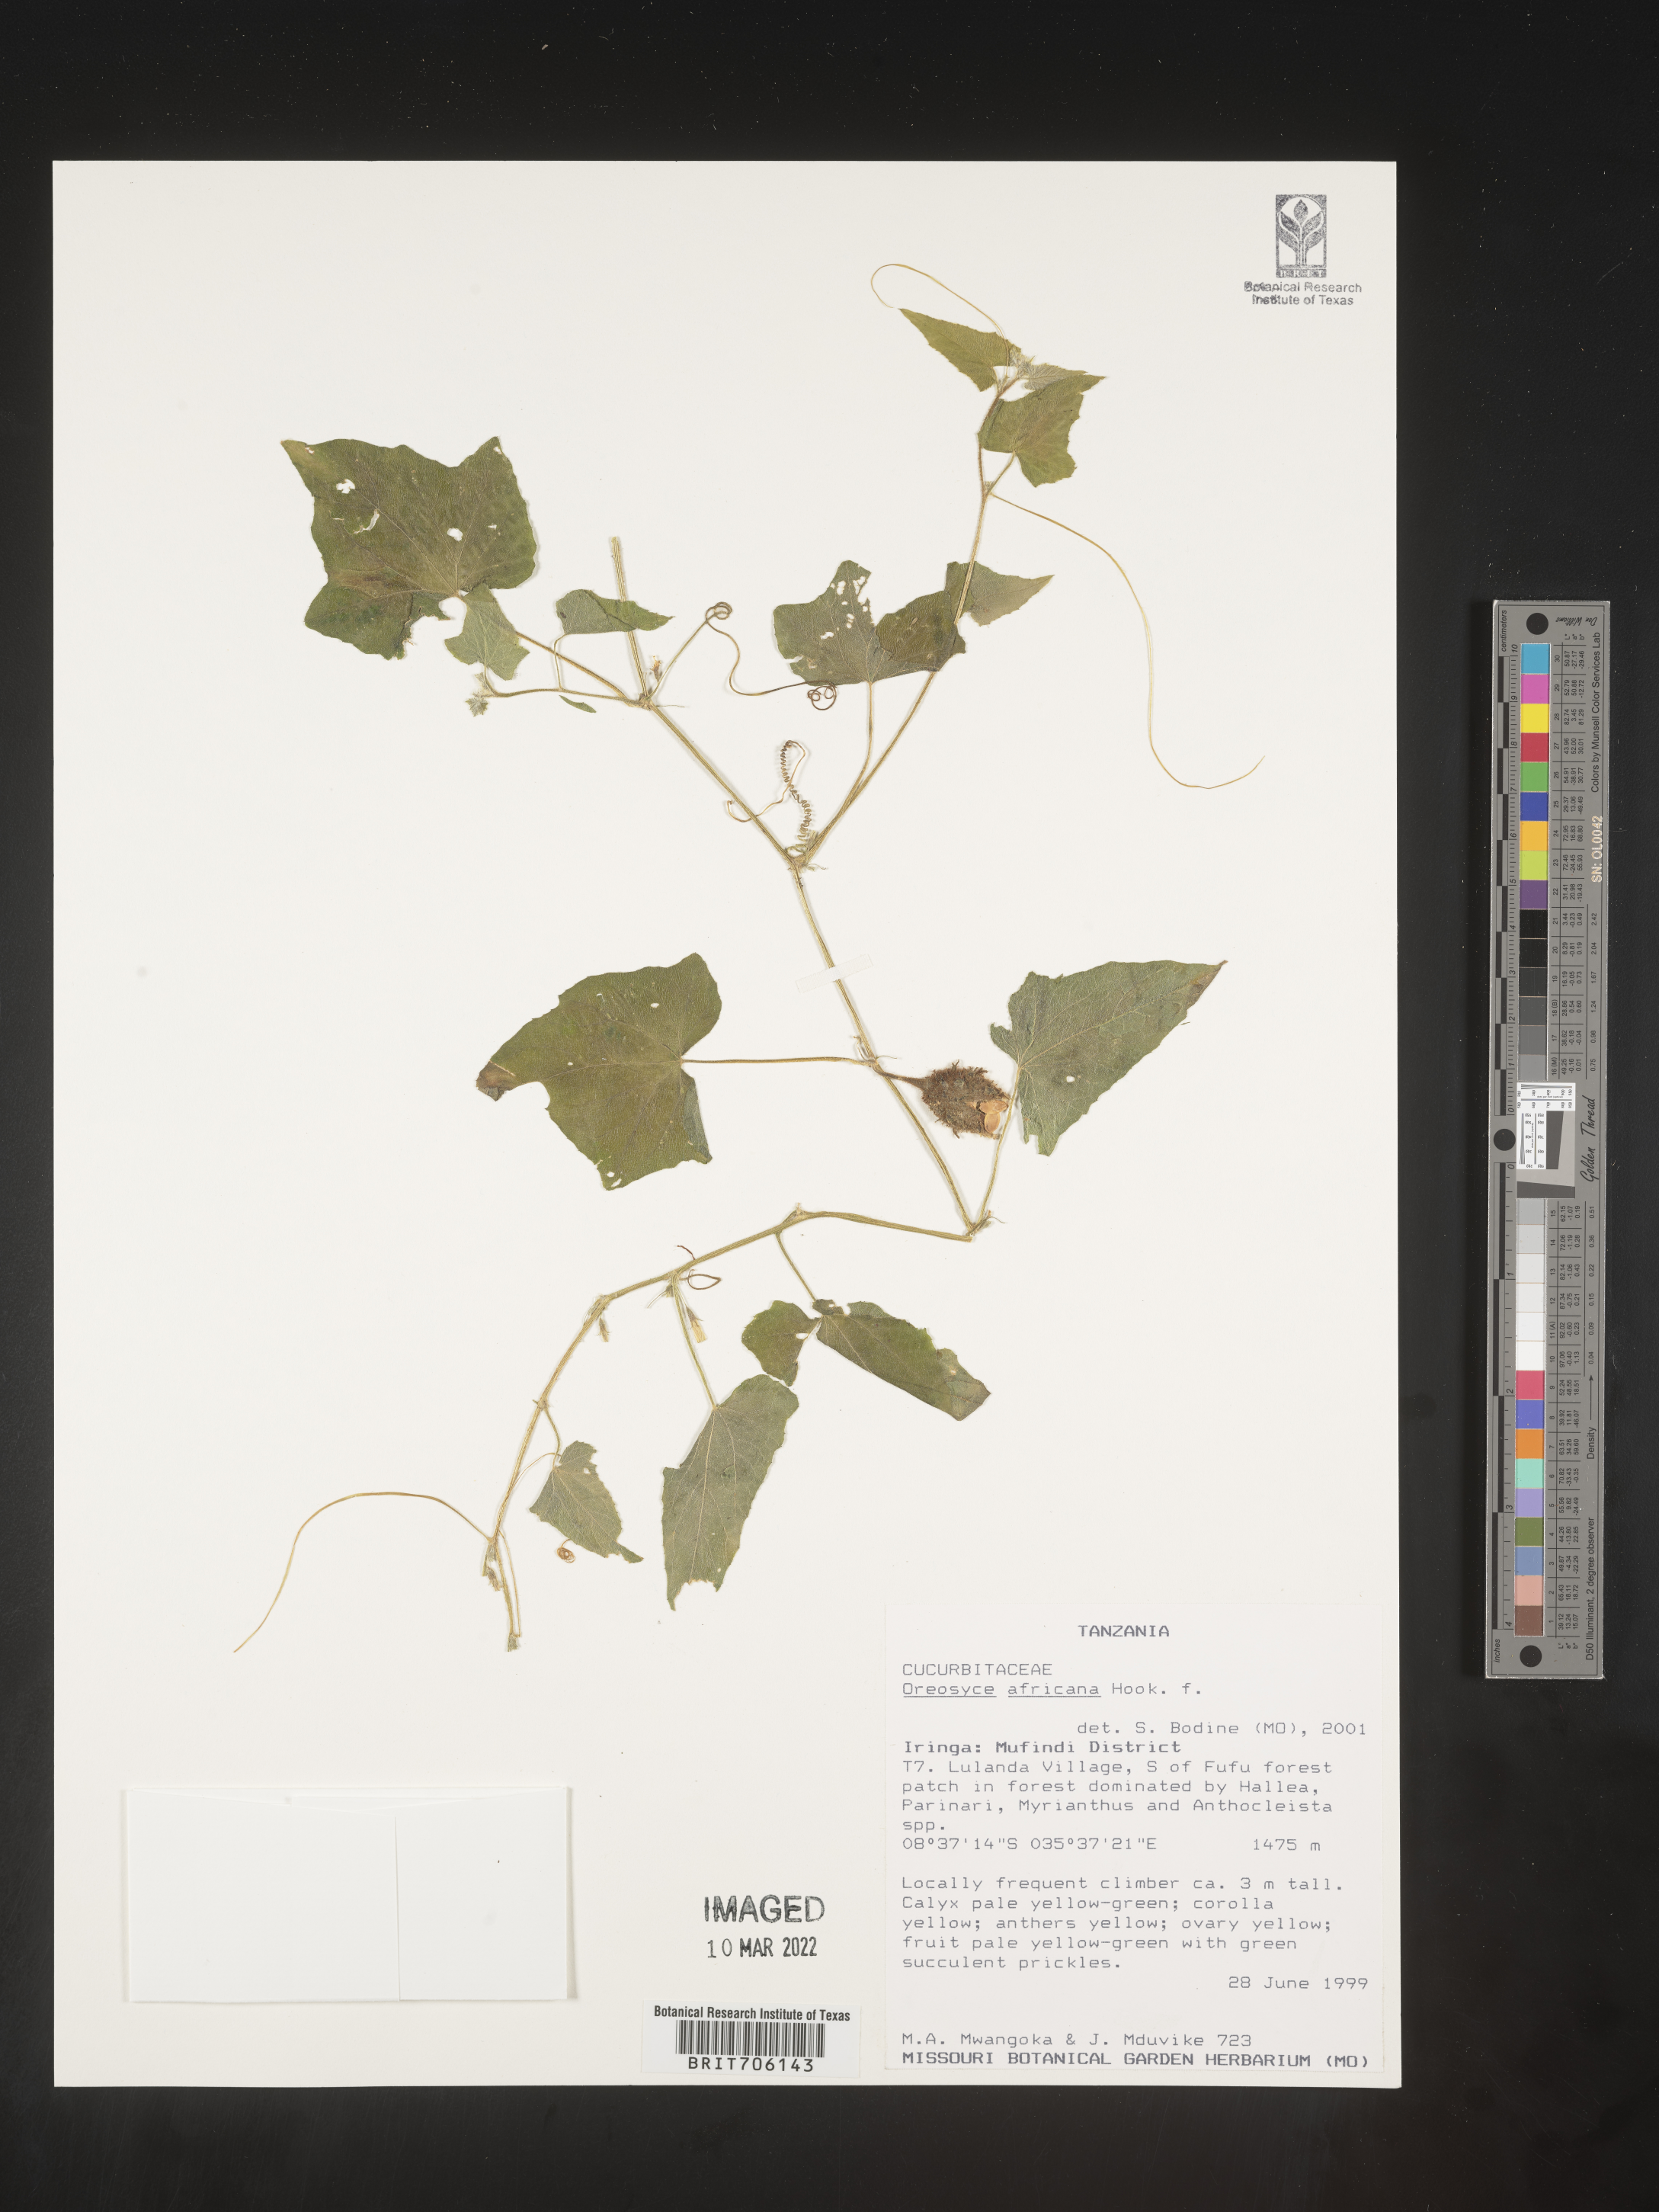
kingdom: Plantae
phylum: Tracheophyta
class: Magnoliopsida
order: Cucurbitales
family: Cucurbitaceae
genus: Oreosyce
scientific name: Oreosyce
